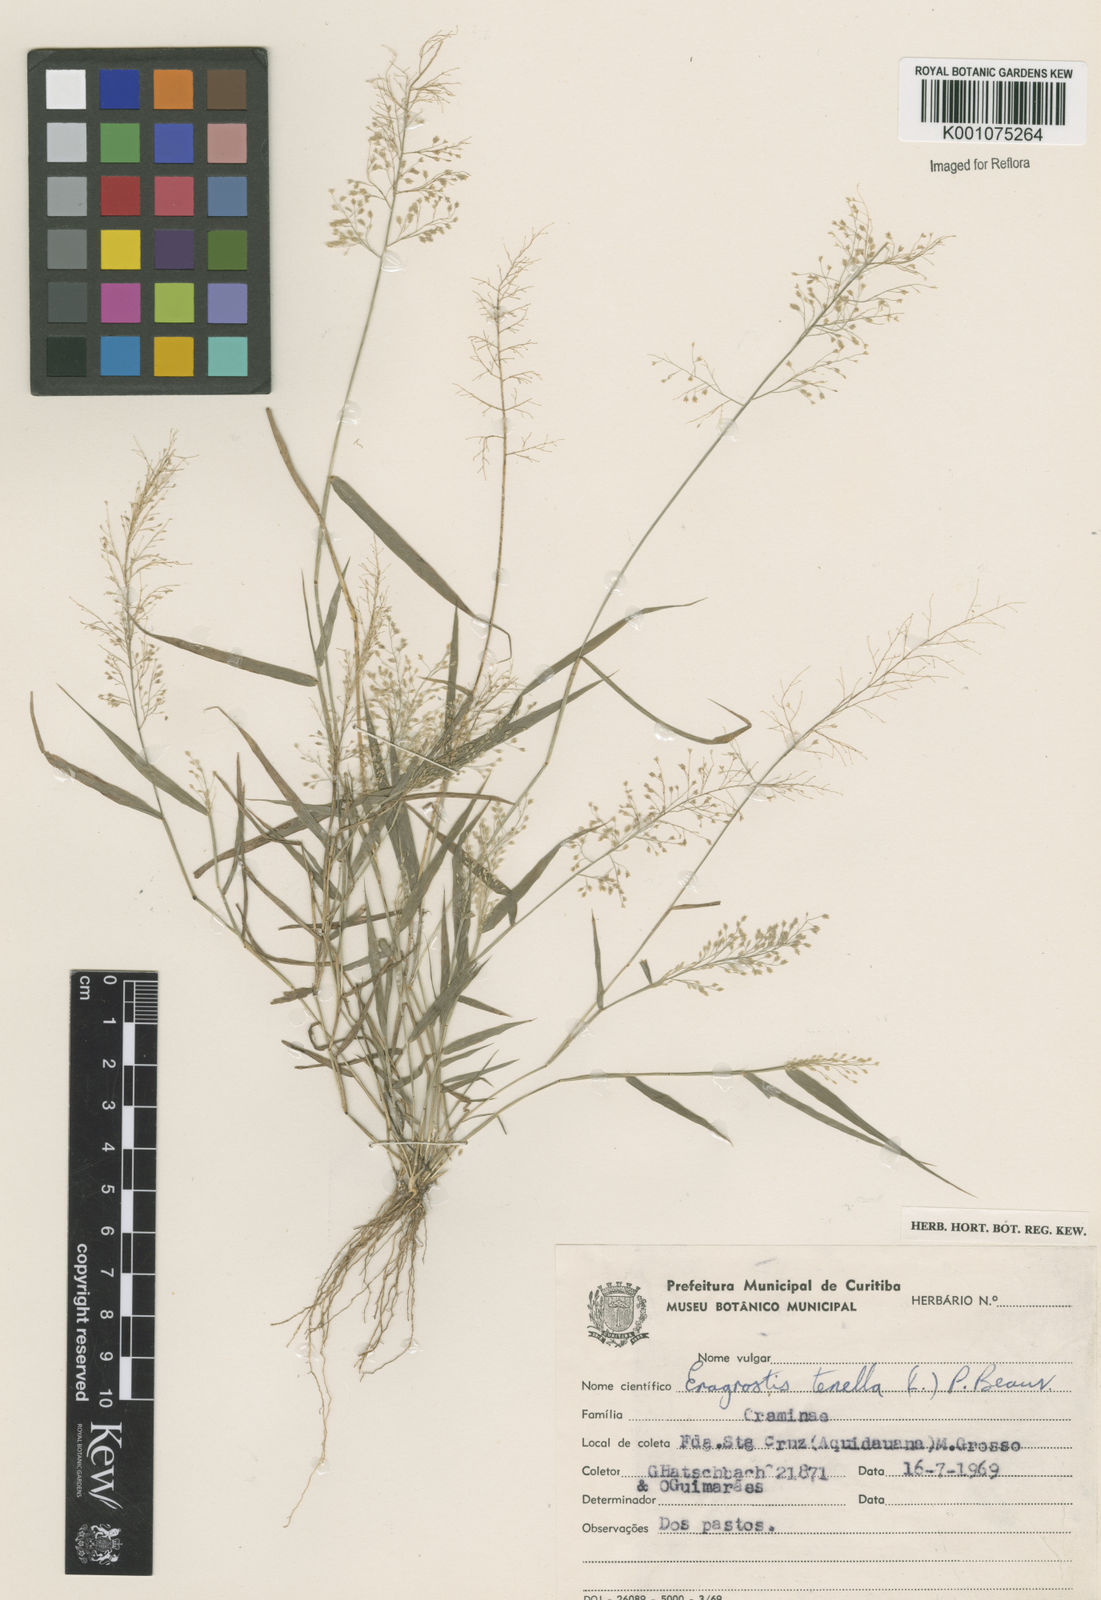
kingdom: Plantae
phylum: Tracheophyta
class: Liliopsida
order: Poales
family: Poaceae
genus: Eragrostis
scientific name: Eragrostis tenella
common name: Japanese lovegrass
